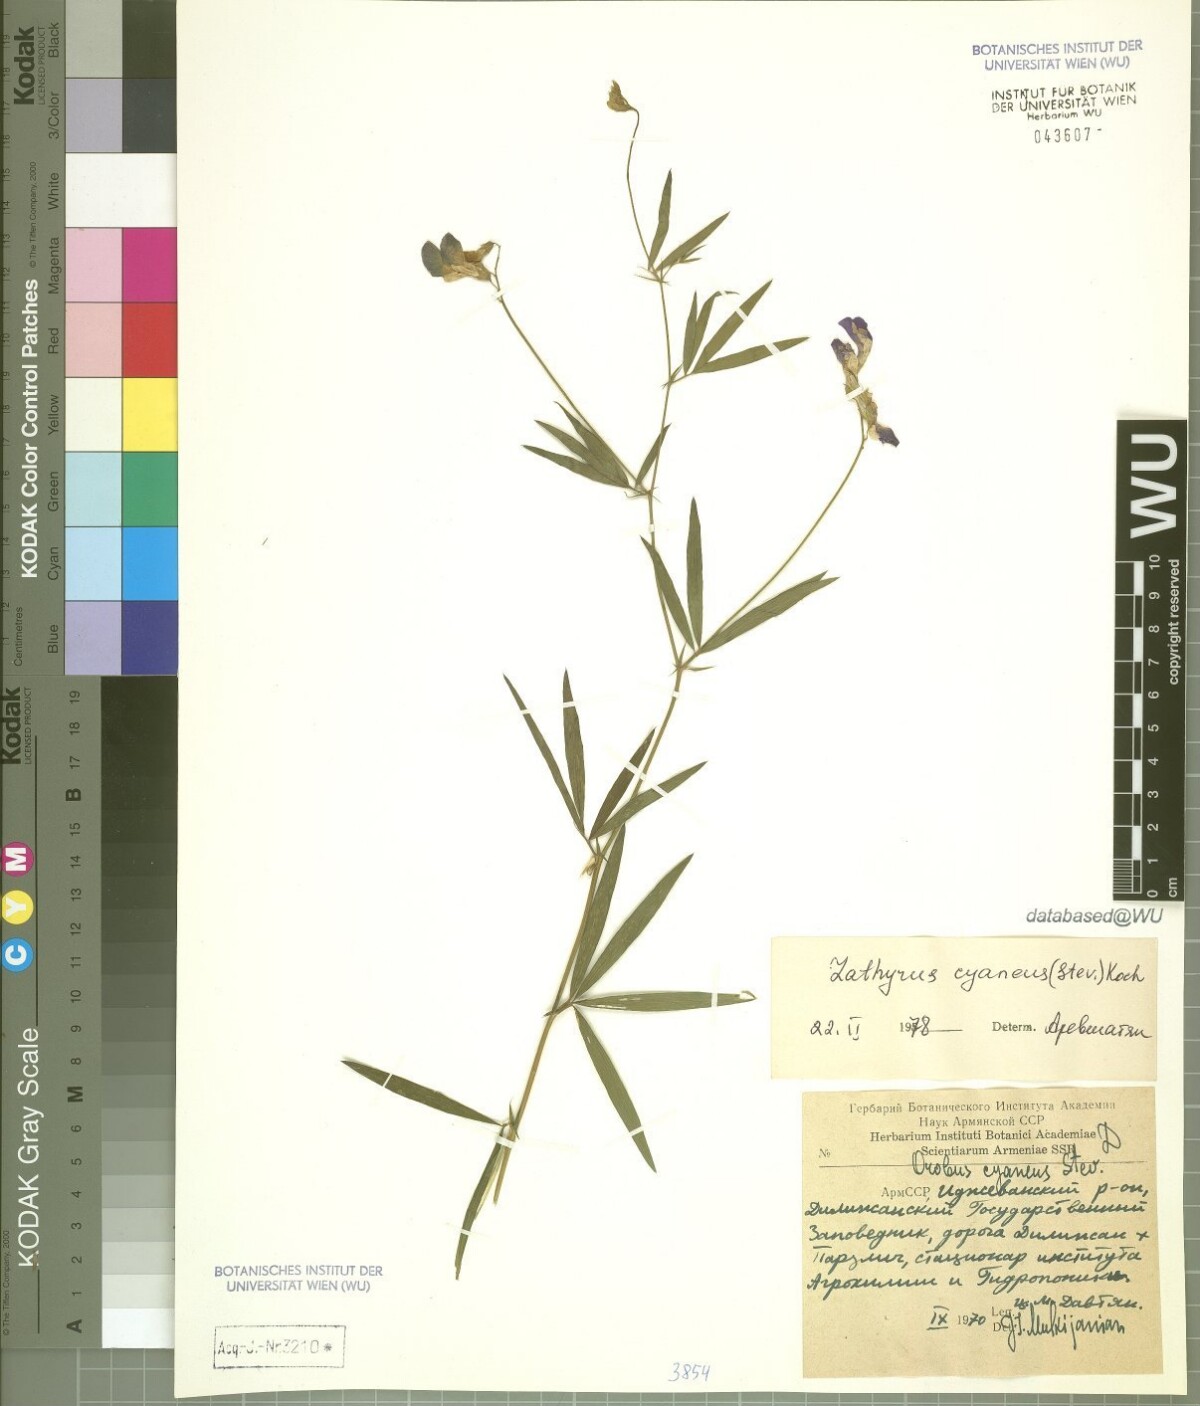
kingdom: Plantae
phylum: Tracheophyta
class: Magnoliopsida
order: Fabales
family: Fabaceae
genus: Lathyrus
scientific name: Lathyrus cyaneus
